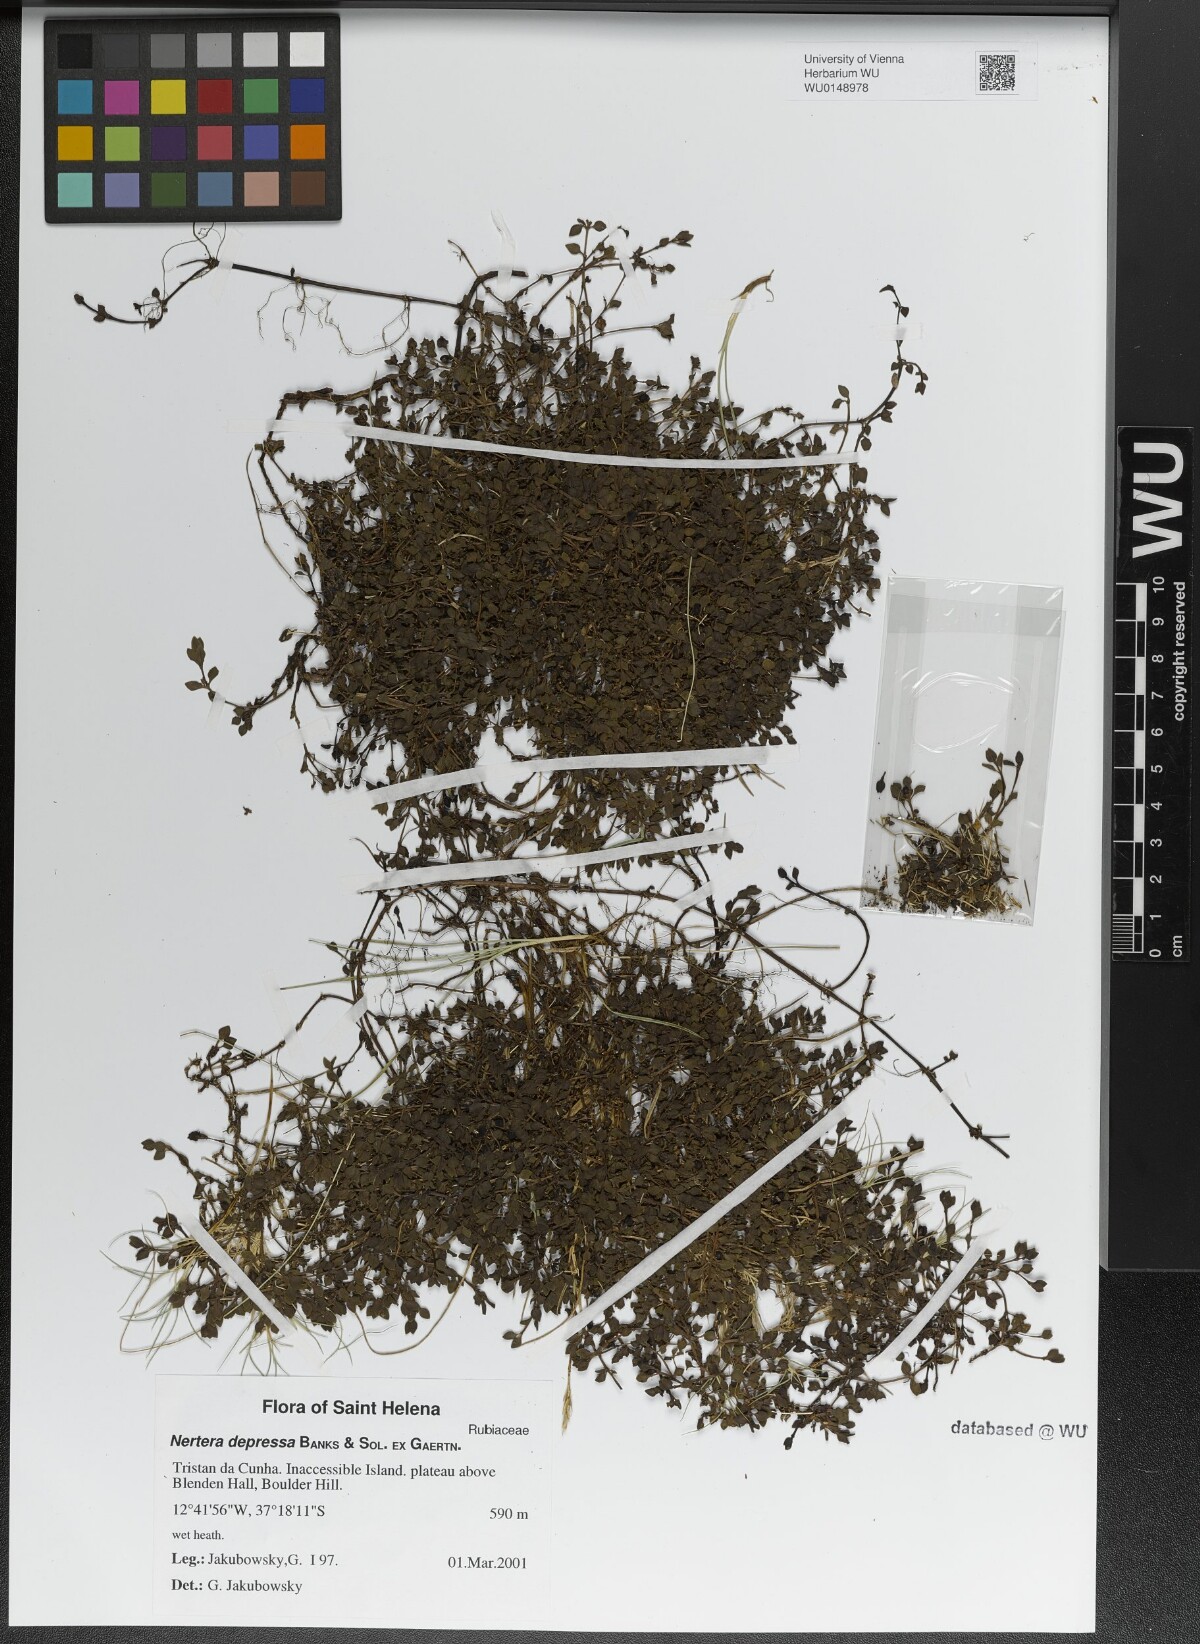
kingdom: Plantae
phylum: Tracheophyta
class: Magnoliopsida
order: Gentianales
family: Rubiaceae
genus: Nertera
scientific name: Nertera granadensis
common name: Beadplant
